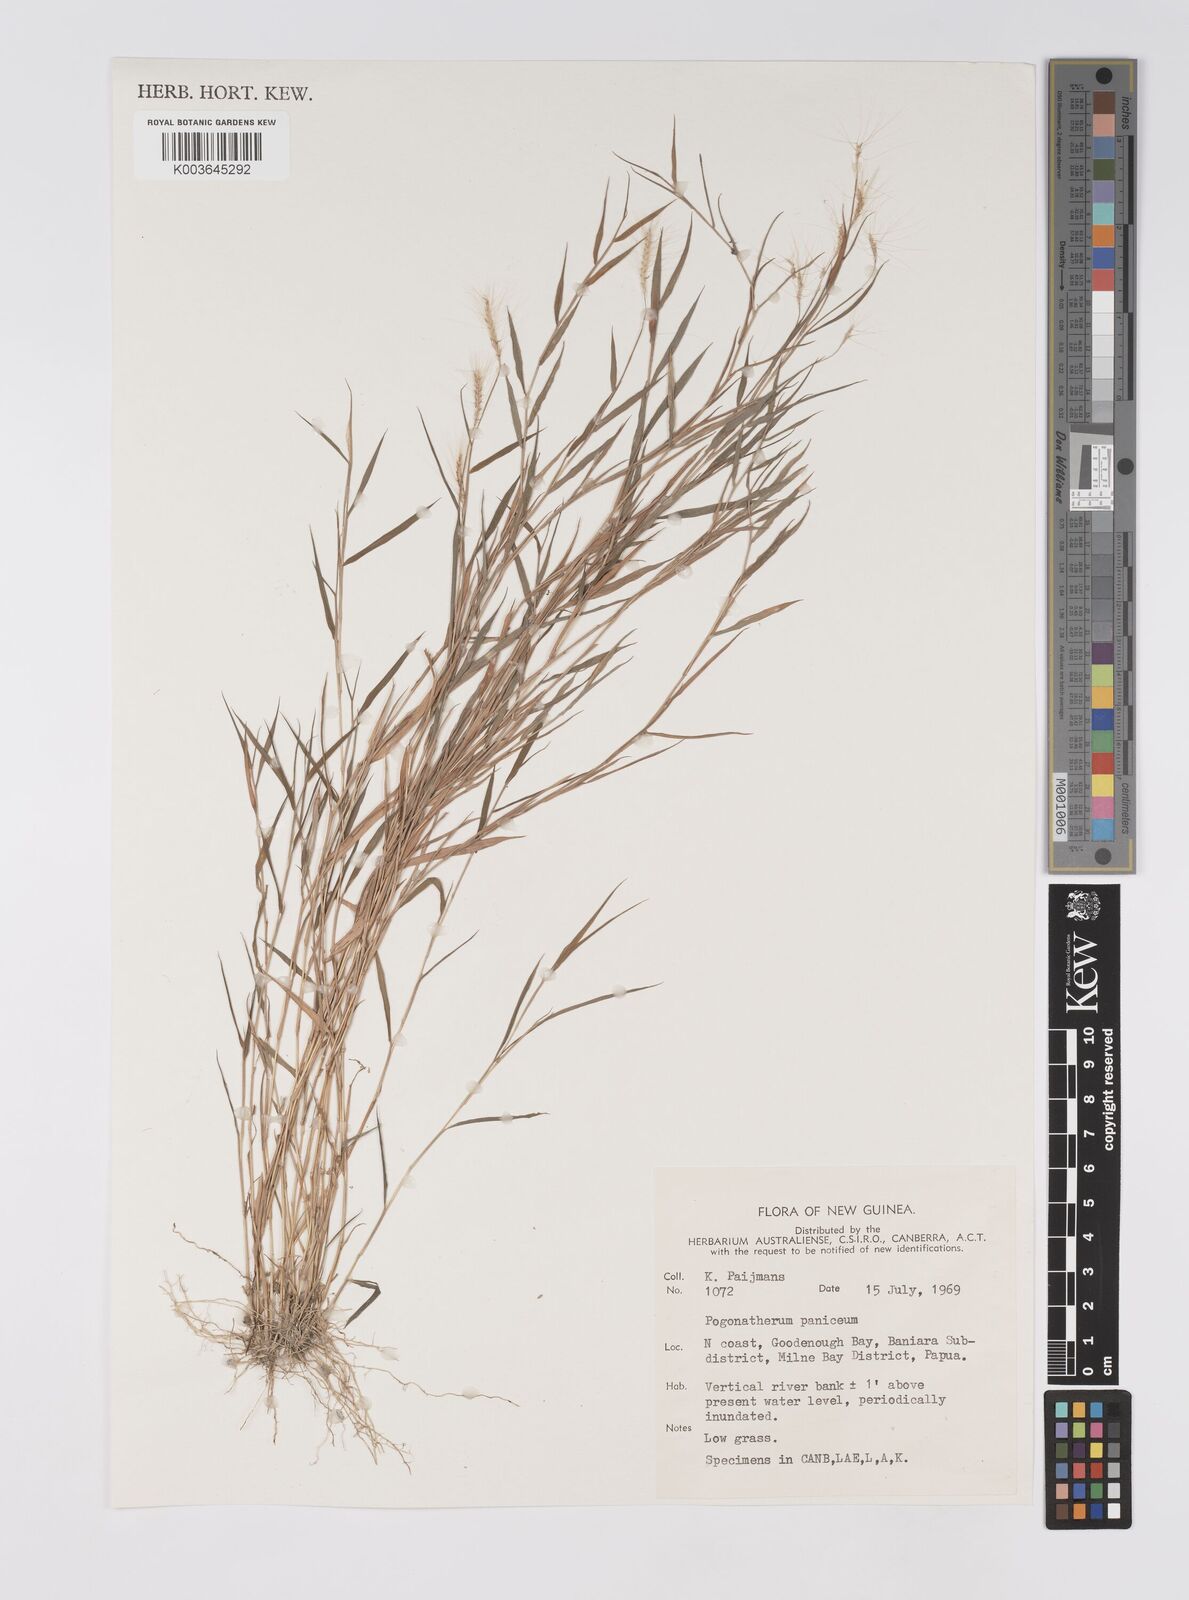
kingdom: Plantae
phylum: Tracheophyta
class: Liliopsida
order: Poales
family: Poaceae
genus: Pogonatherum
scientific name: Pogonatherum paniceum
